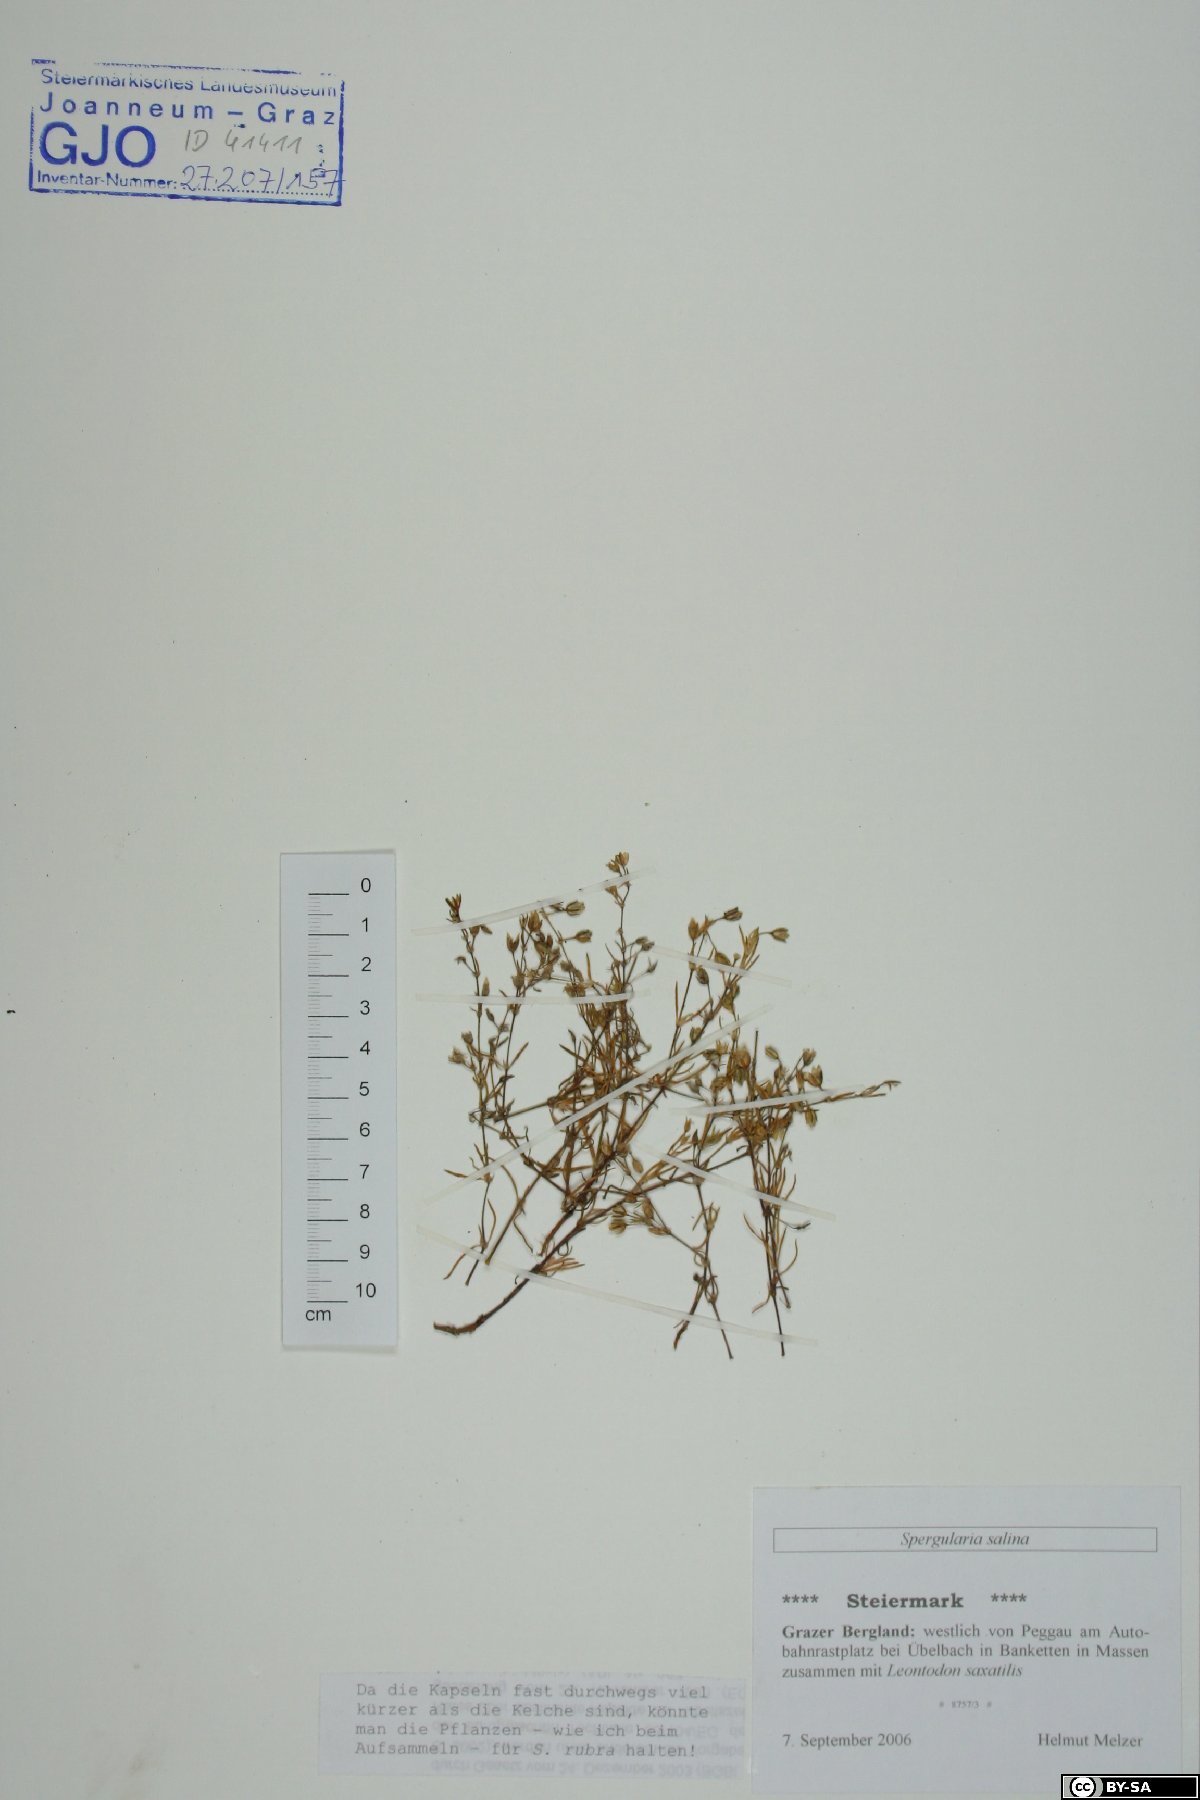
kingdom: Plantae
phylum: Tracheophyta
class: Magnoliopsida
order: Caryophyllales
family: Caryophyllaceae
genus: Spergularia
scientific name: Spergularia marina
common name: Lesser sea-spurrey
